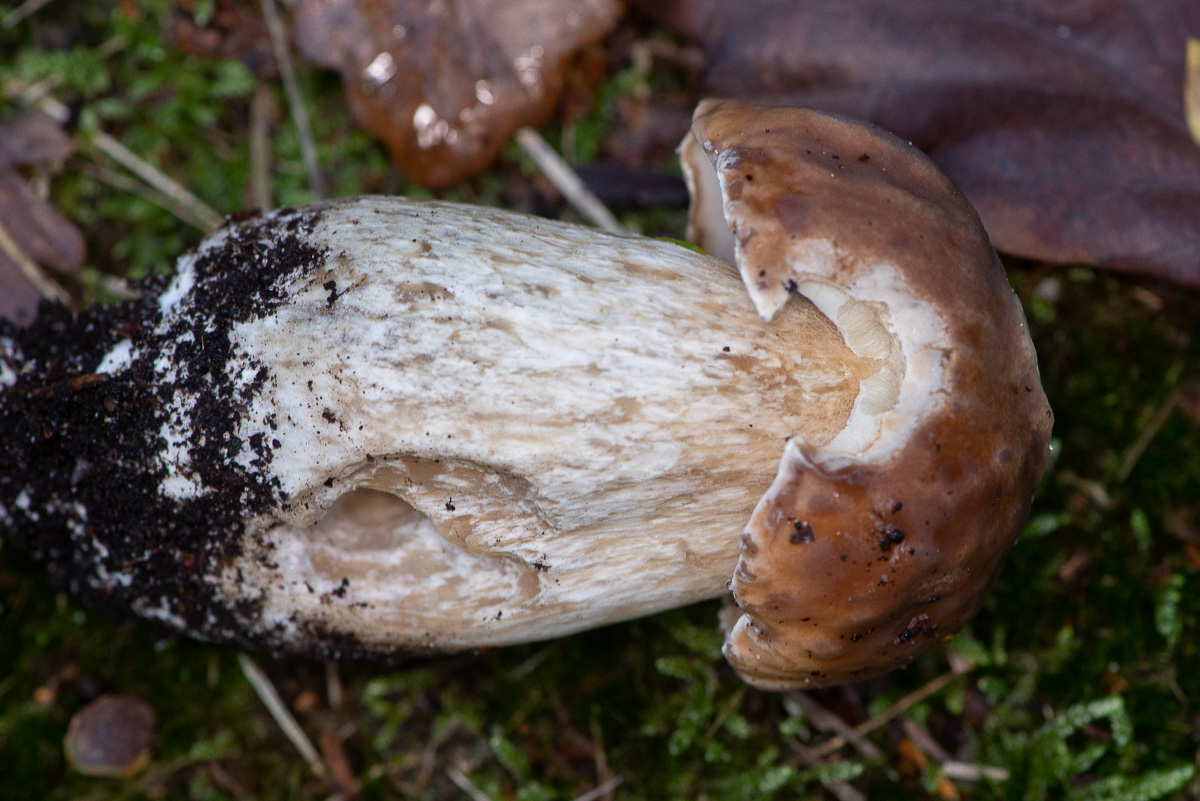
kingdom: Fungi
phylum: Basidiomycota
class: Agaricomycetes
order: Boletales
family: Boletaceae
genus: Boletus
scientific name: Boletus edulis
